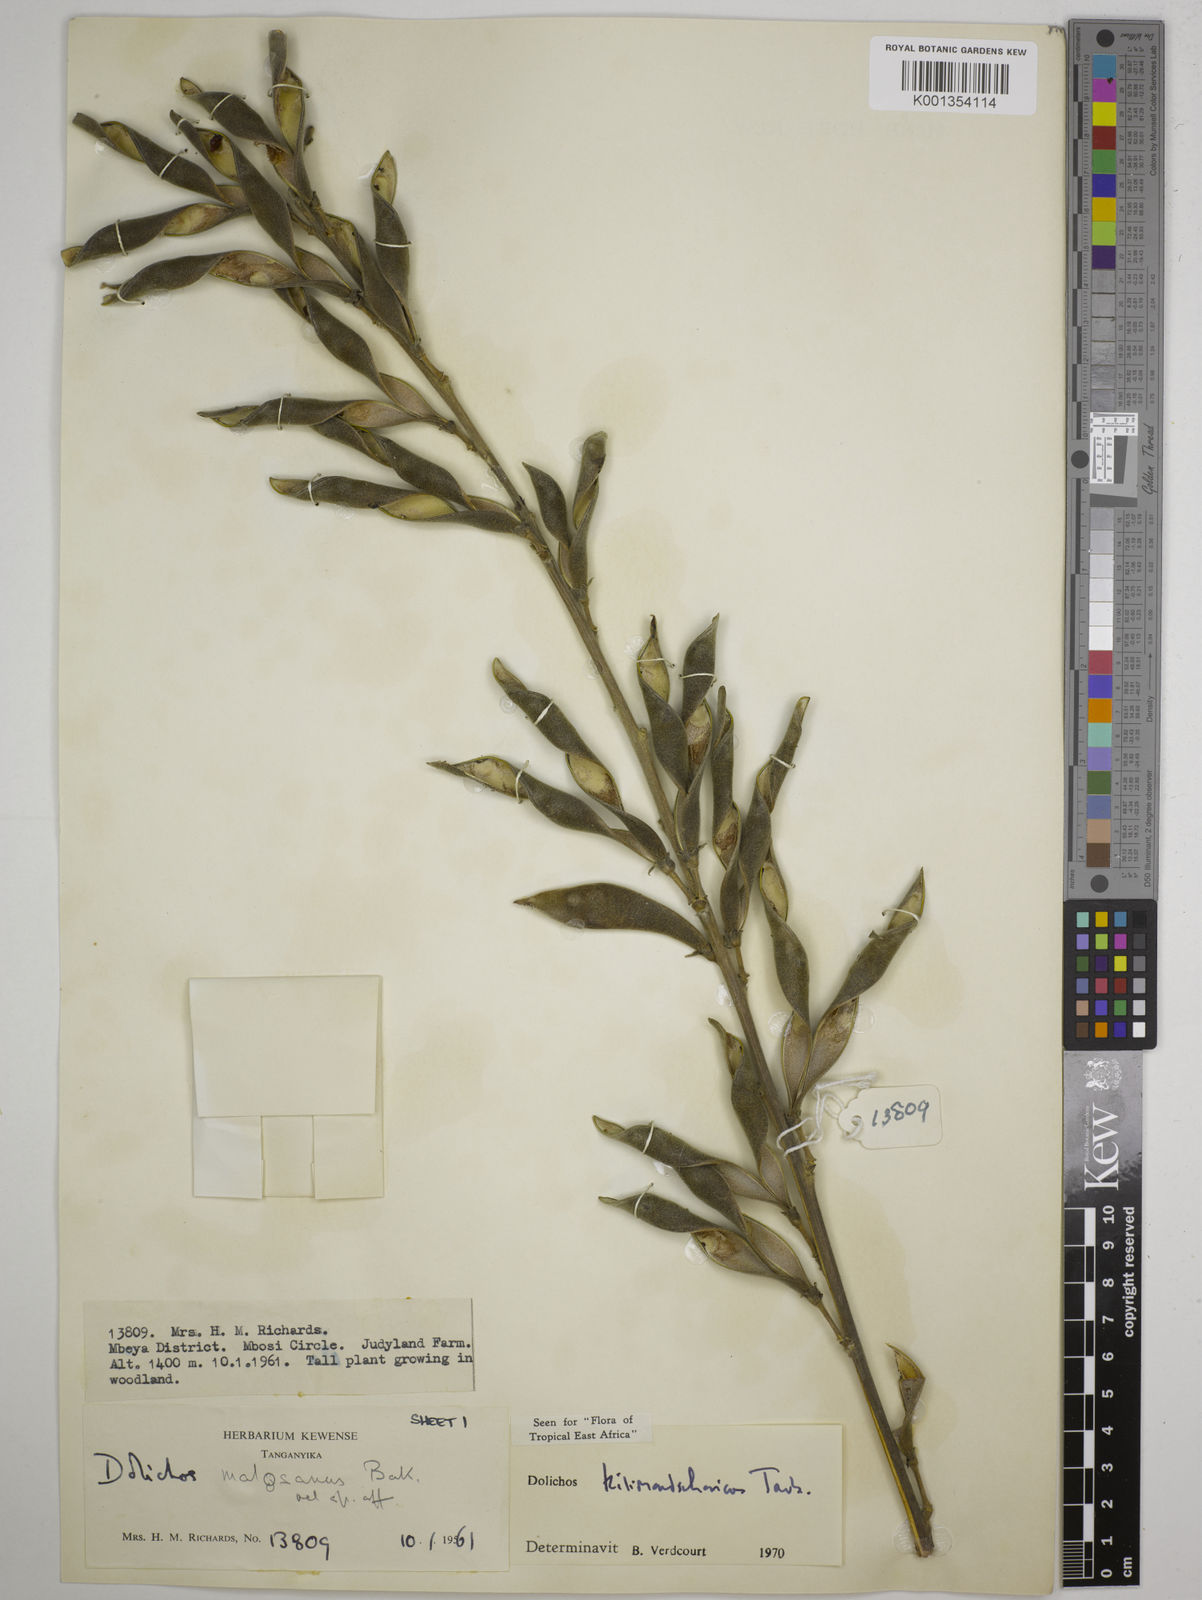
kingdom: Plantae
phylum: Tracheophyta
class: Magnoliopsida
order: Fabales
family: Fabaceae
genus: Dolichos
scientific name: Dolichos kilimandscharicus
